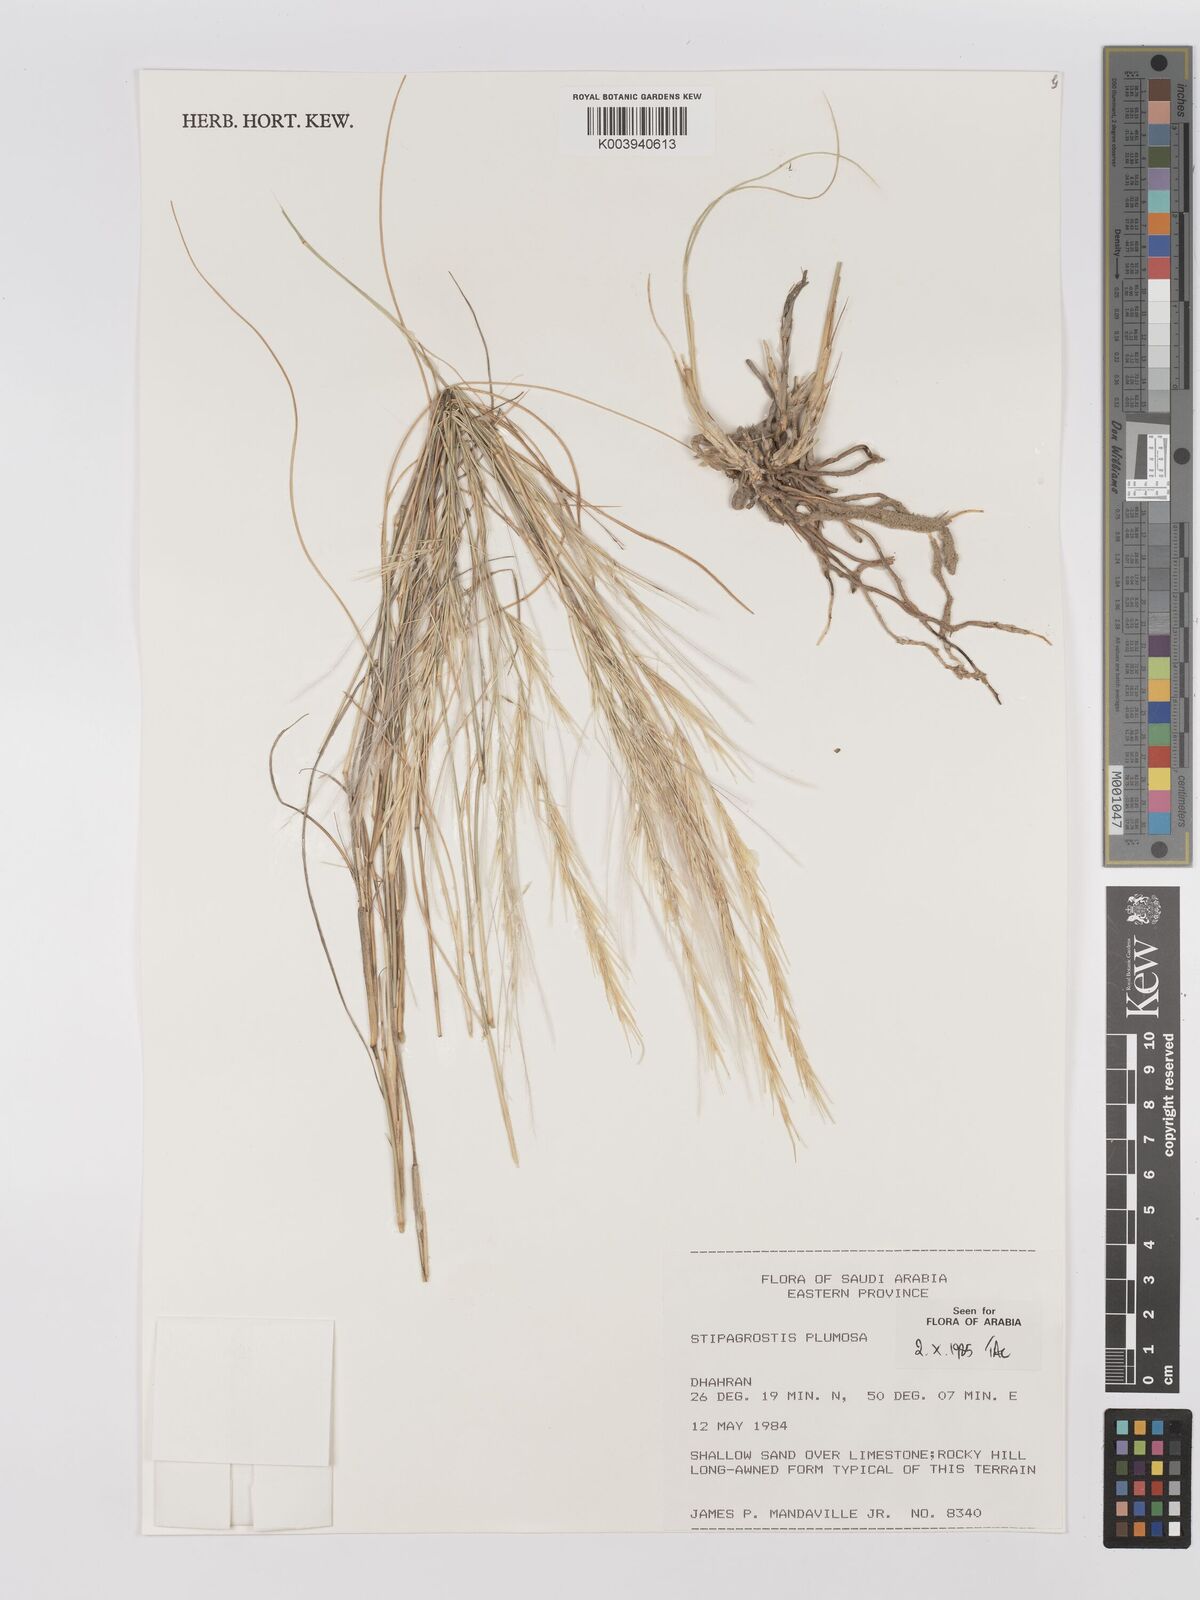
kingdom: Plantae
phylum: Tracheophyta
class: Liliopsida
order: Poales
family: Poaceae
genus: Stipagrostis
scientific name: Stipagrostis plumosa
